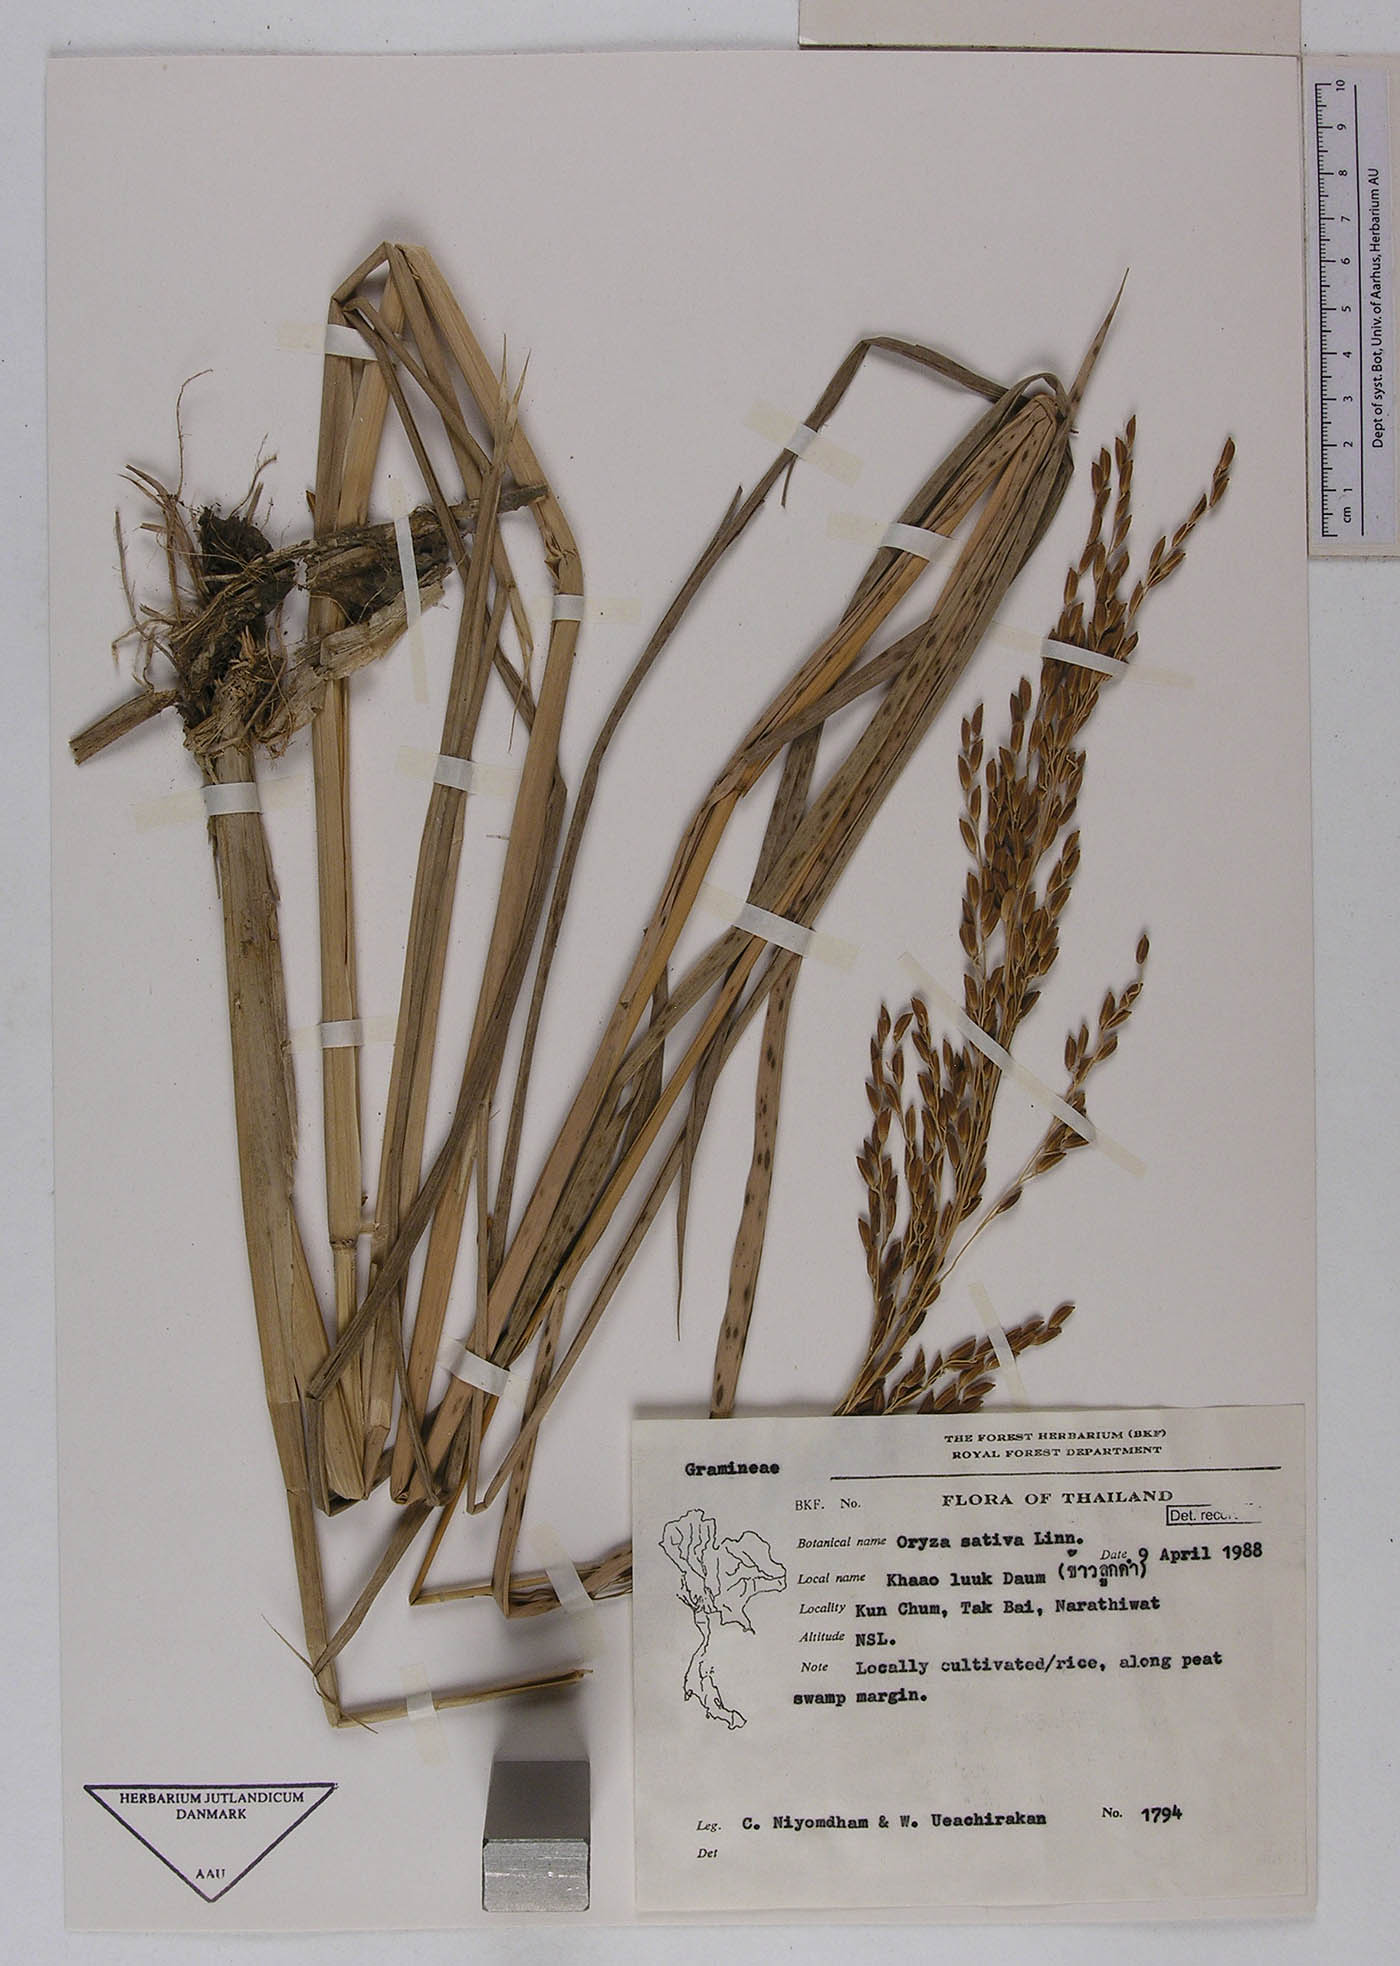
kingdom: Plantae
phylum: Tracheophyta
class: Liliopsida
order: Poales
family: Poaceae
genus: Oryza
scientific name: Oryza sativa
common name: Rice
